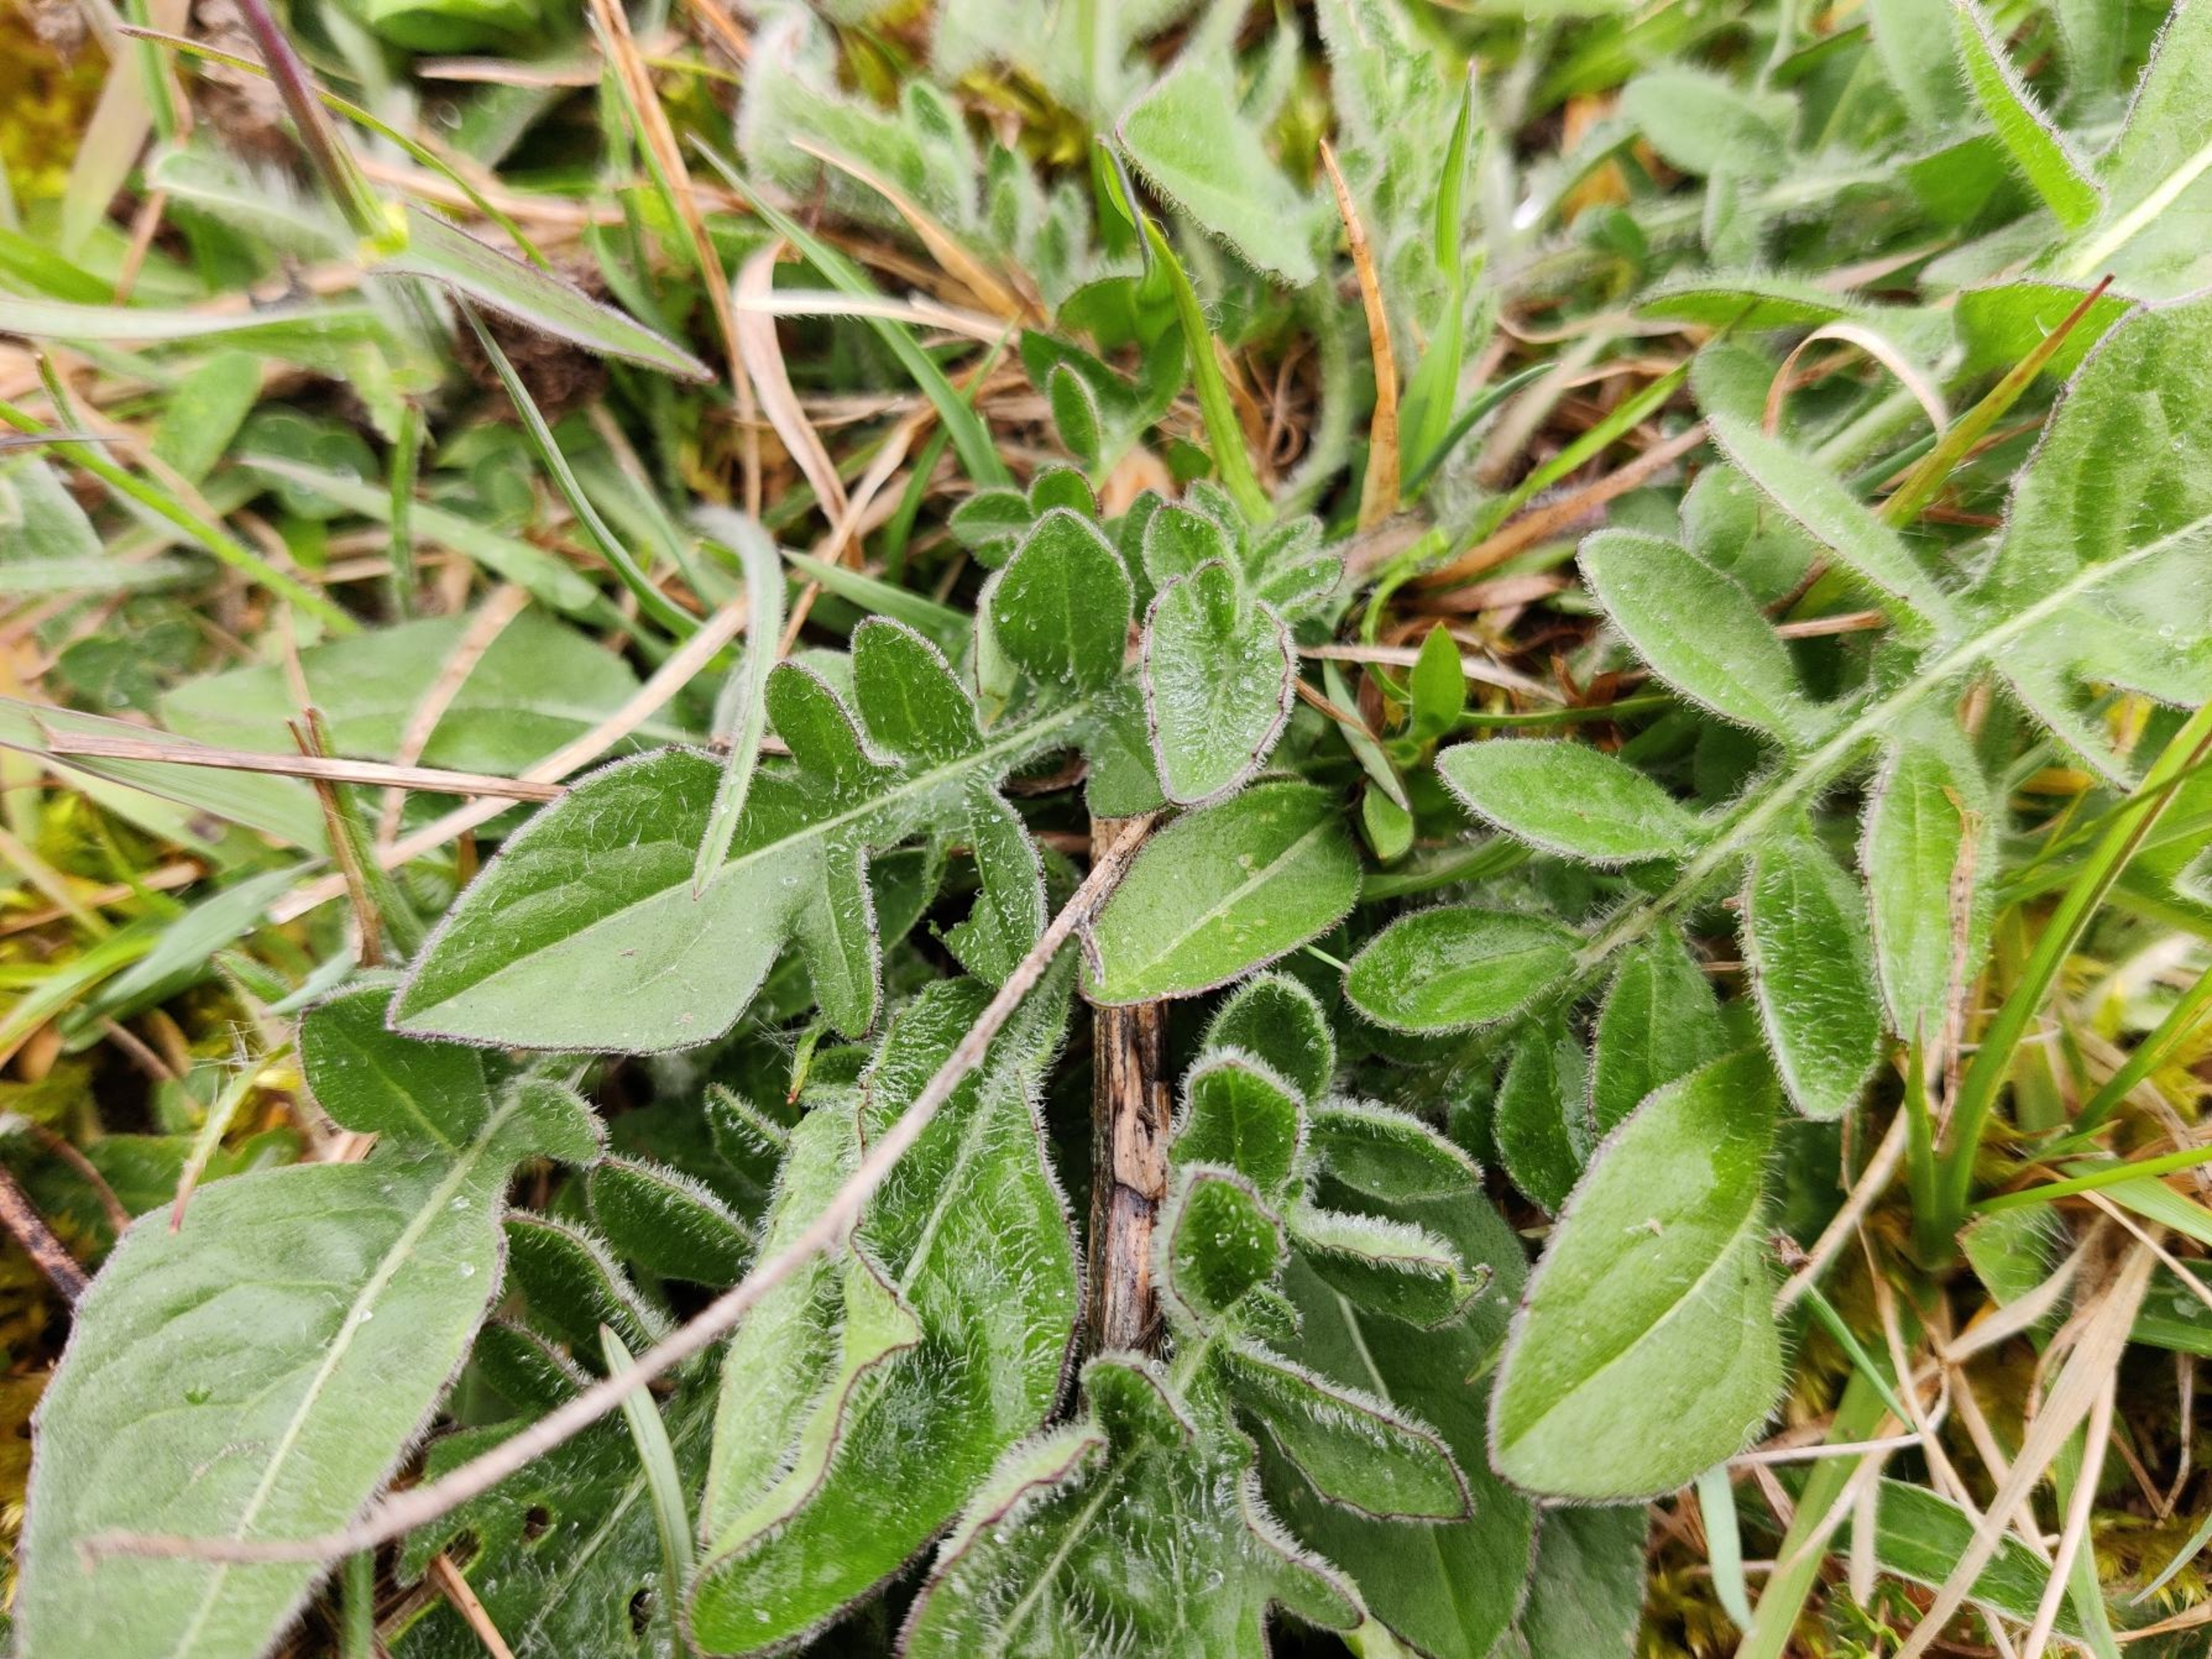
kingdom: Plantae
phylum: Tracheophyta
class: Magnoliopsida
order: Dipsacales
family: Caprifoliaceae
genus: Knautia
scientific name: Knautia arvensis
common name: Blåhat
